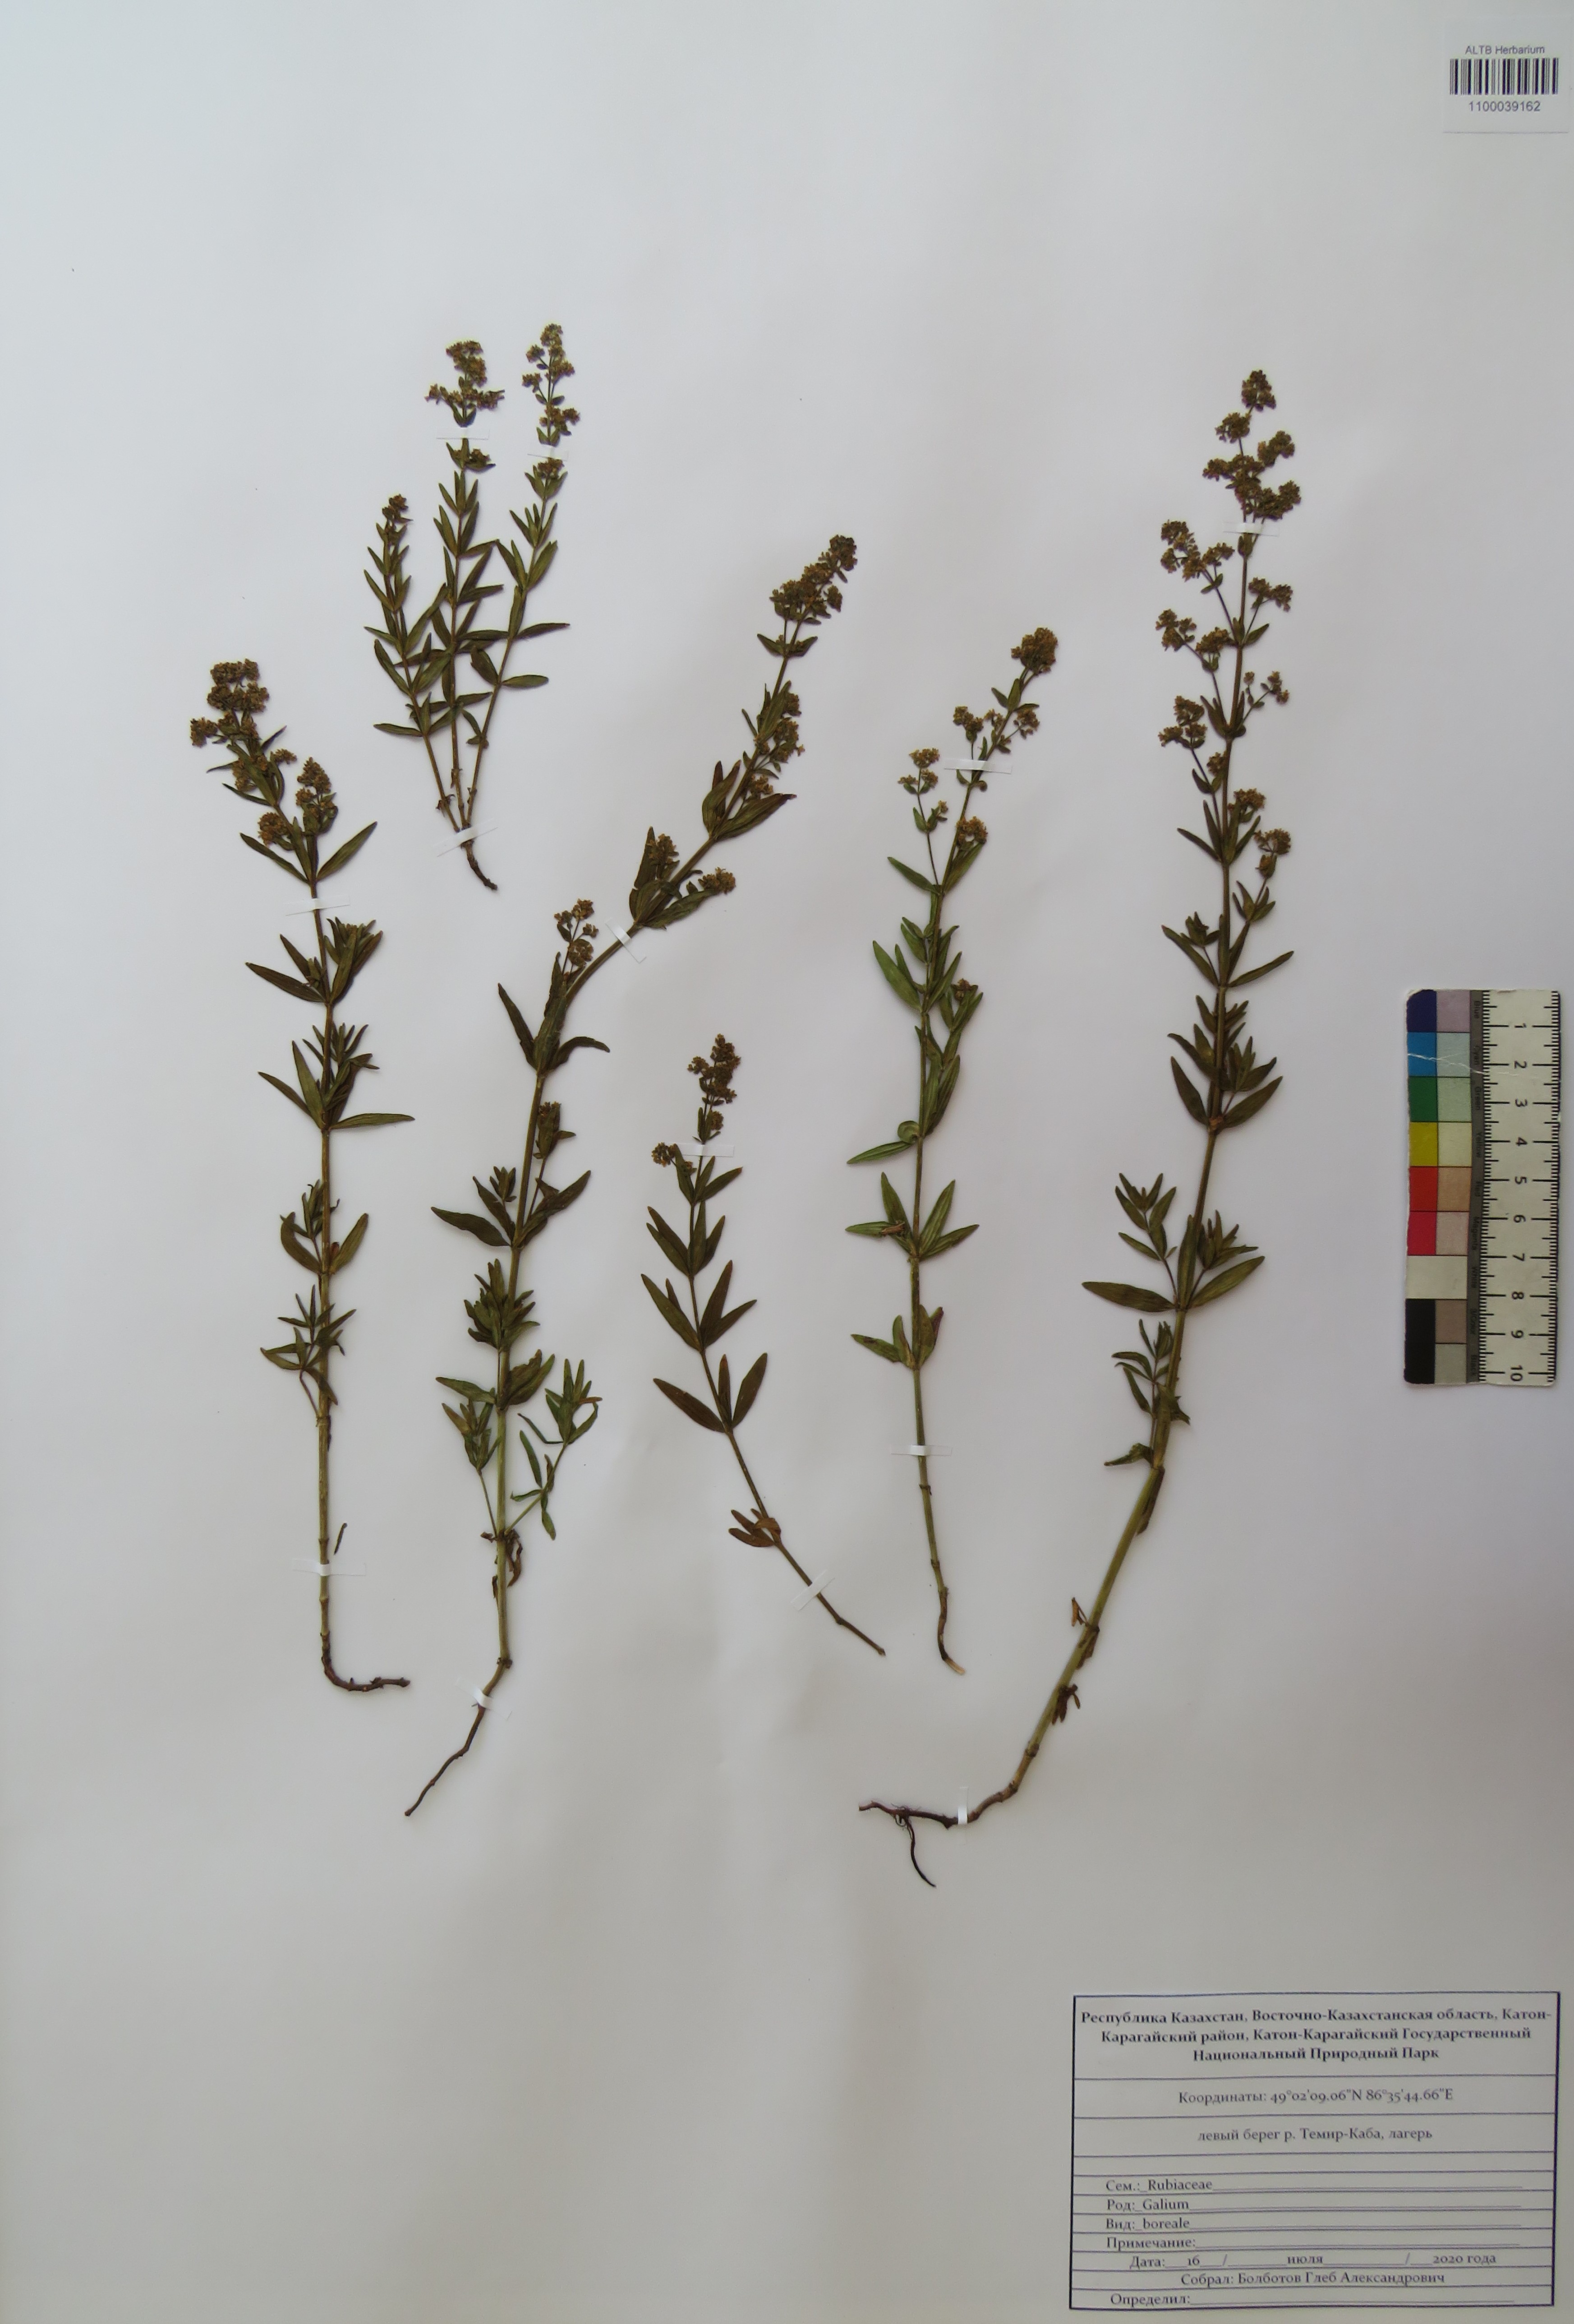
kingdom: Plantae
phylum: Tracheophyta
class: Magnoliopsida
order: Gentianales
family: Rubiaceae
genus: Galium
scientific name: Galium boreale
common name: Northern bedstraw
